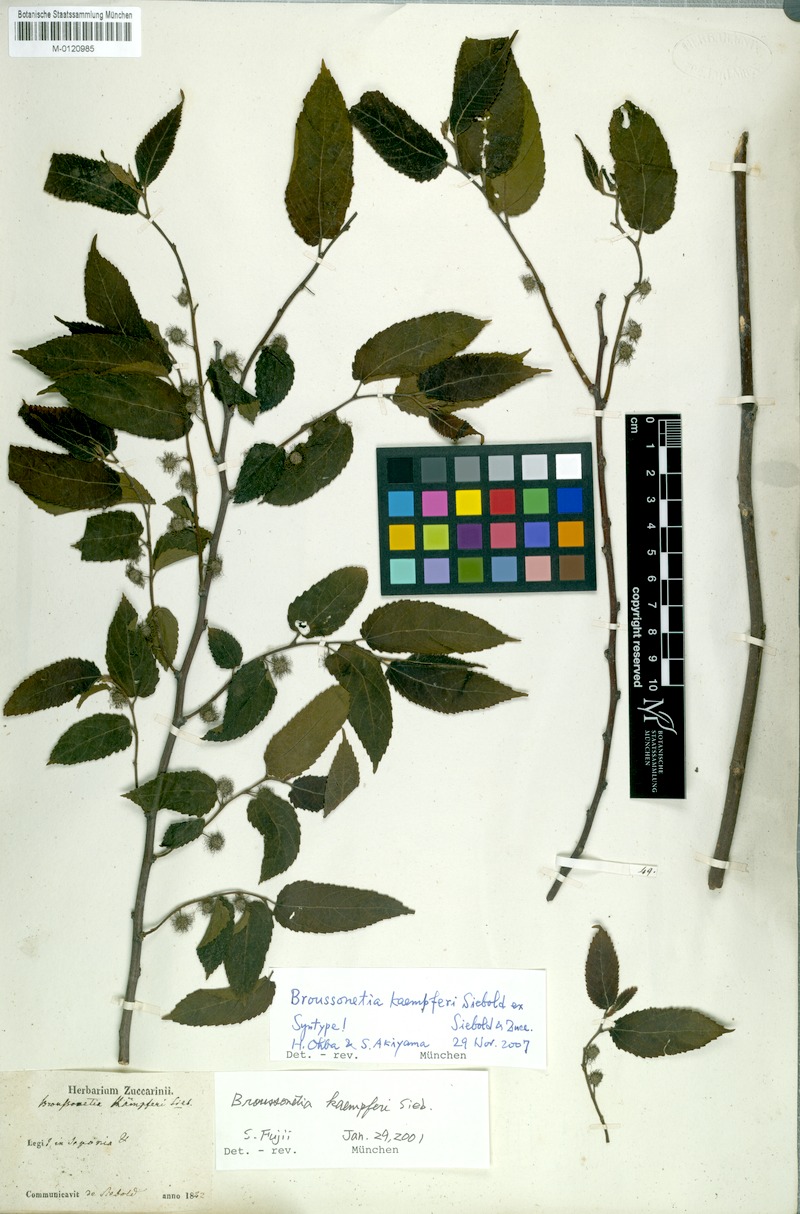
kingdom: Plantae
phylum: Tracheophyta
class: Magnoliopsida
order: Rosales
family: Moraceae
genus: Broussonetia
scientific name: Broussonetia kaempferi
